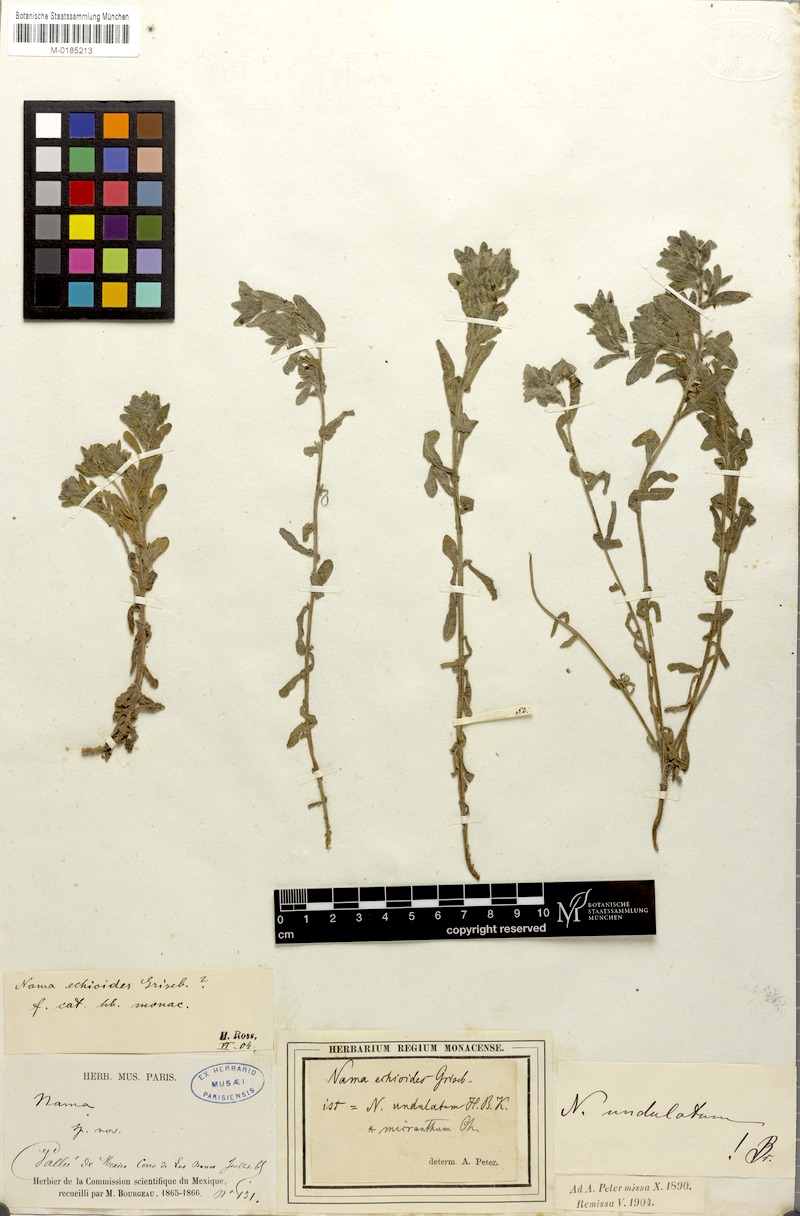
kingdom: Plantae
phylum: Tracheophyta
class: Magnoliopsida
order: Boraginales
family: Namaceae
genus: Nama
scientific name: Nama undulata
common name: Whitewhisker fiddleleaf
